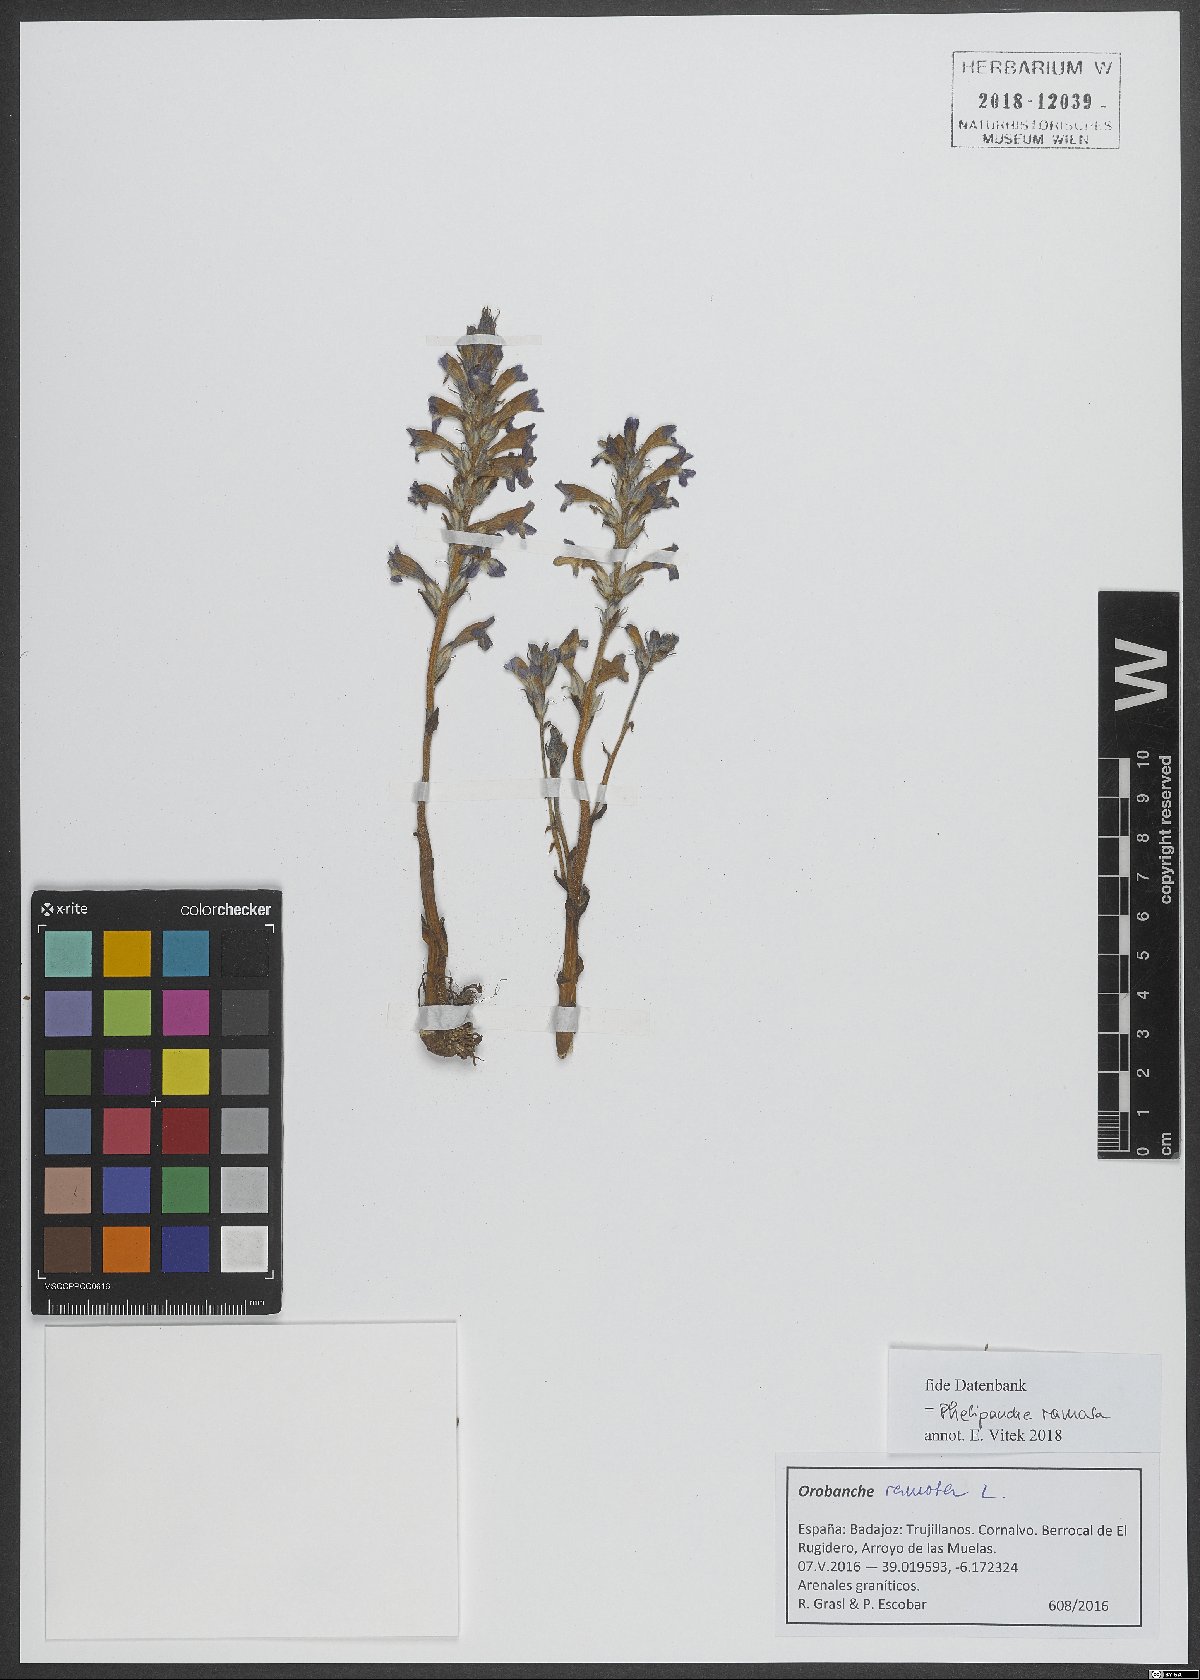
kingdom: Plantae
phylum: Tracheophyta
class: Magnoliopsida
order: Lamiales
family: Orobanchaceae
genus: Phelipanche
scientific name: Phelipanche ramosa
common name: Branched broomrape
